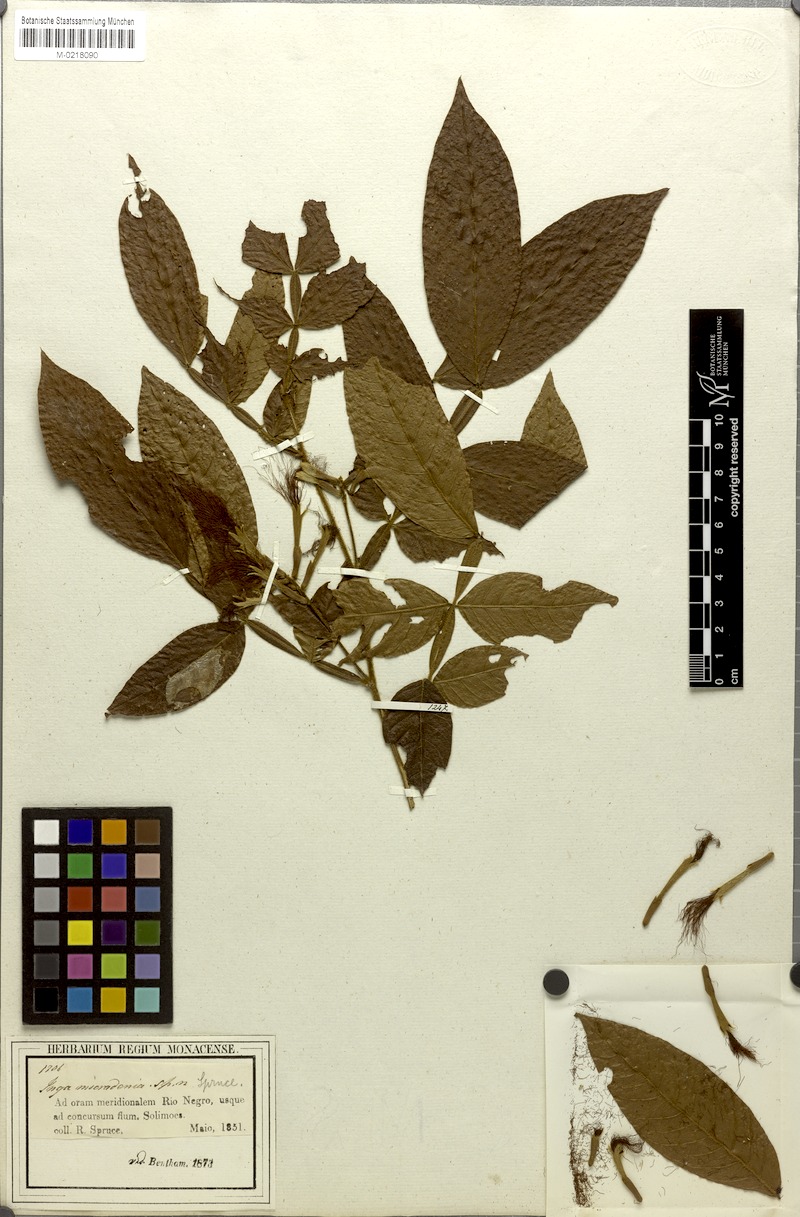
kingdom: Plantae
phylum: Tracheophyta
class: Magnoliopsida
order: Fabales
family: Fabaceae
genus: Inga
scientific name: Inga micradenia
